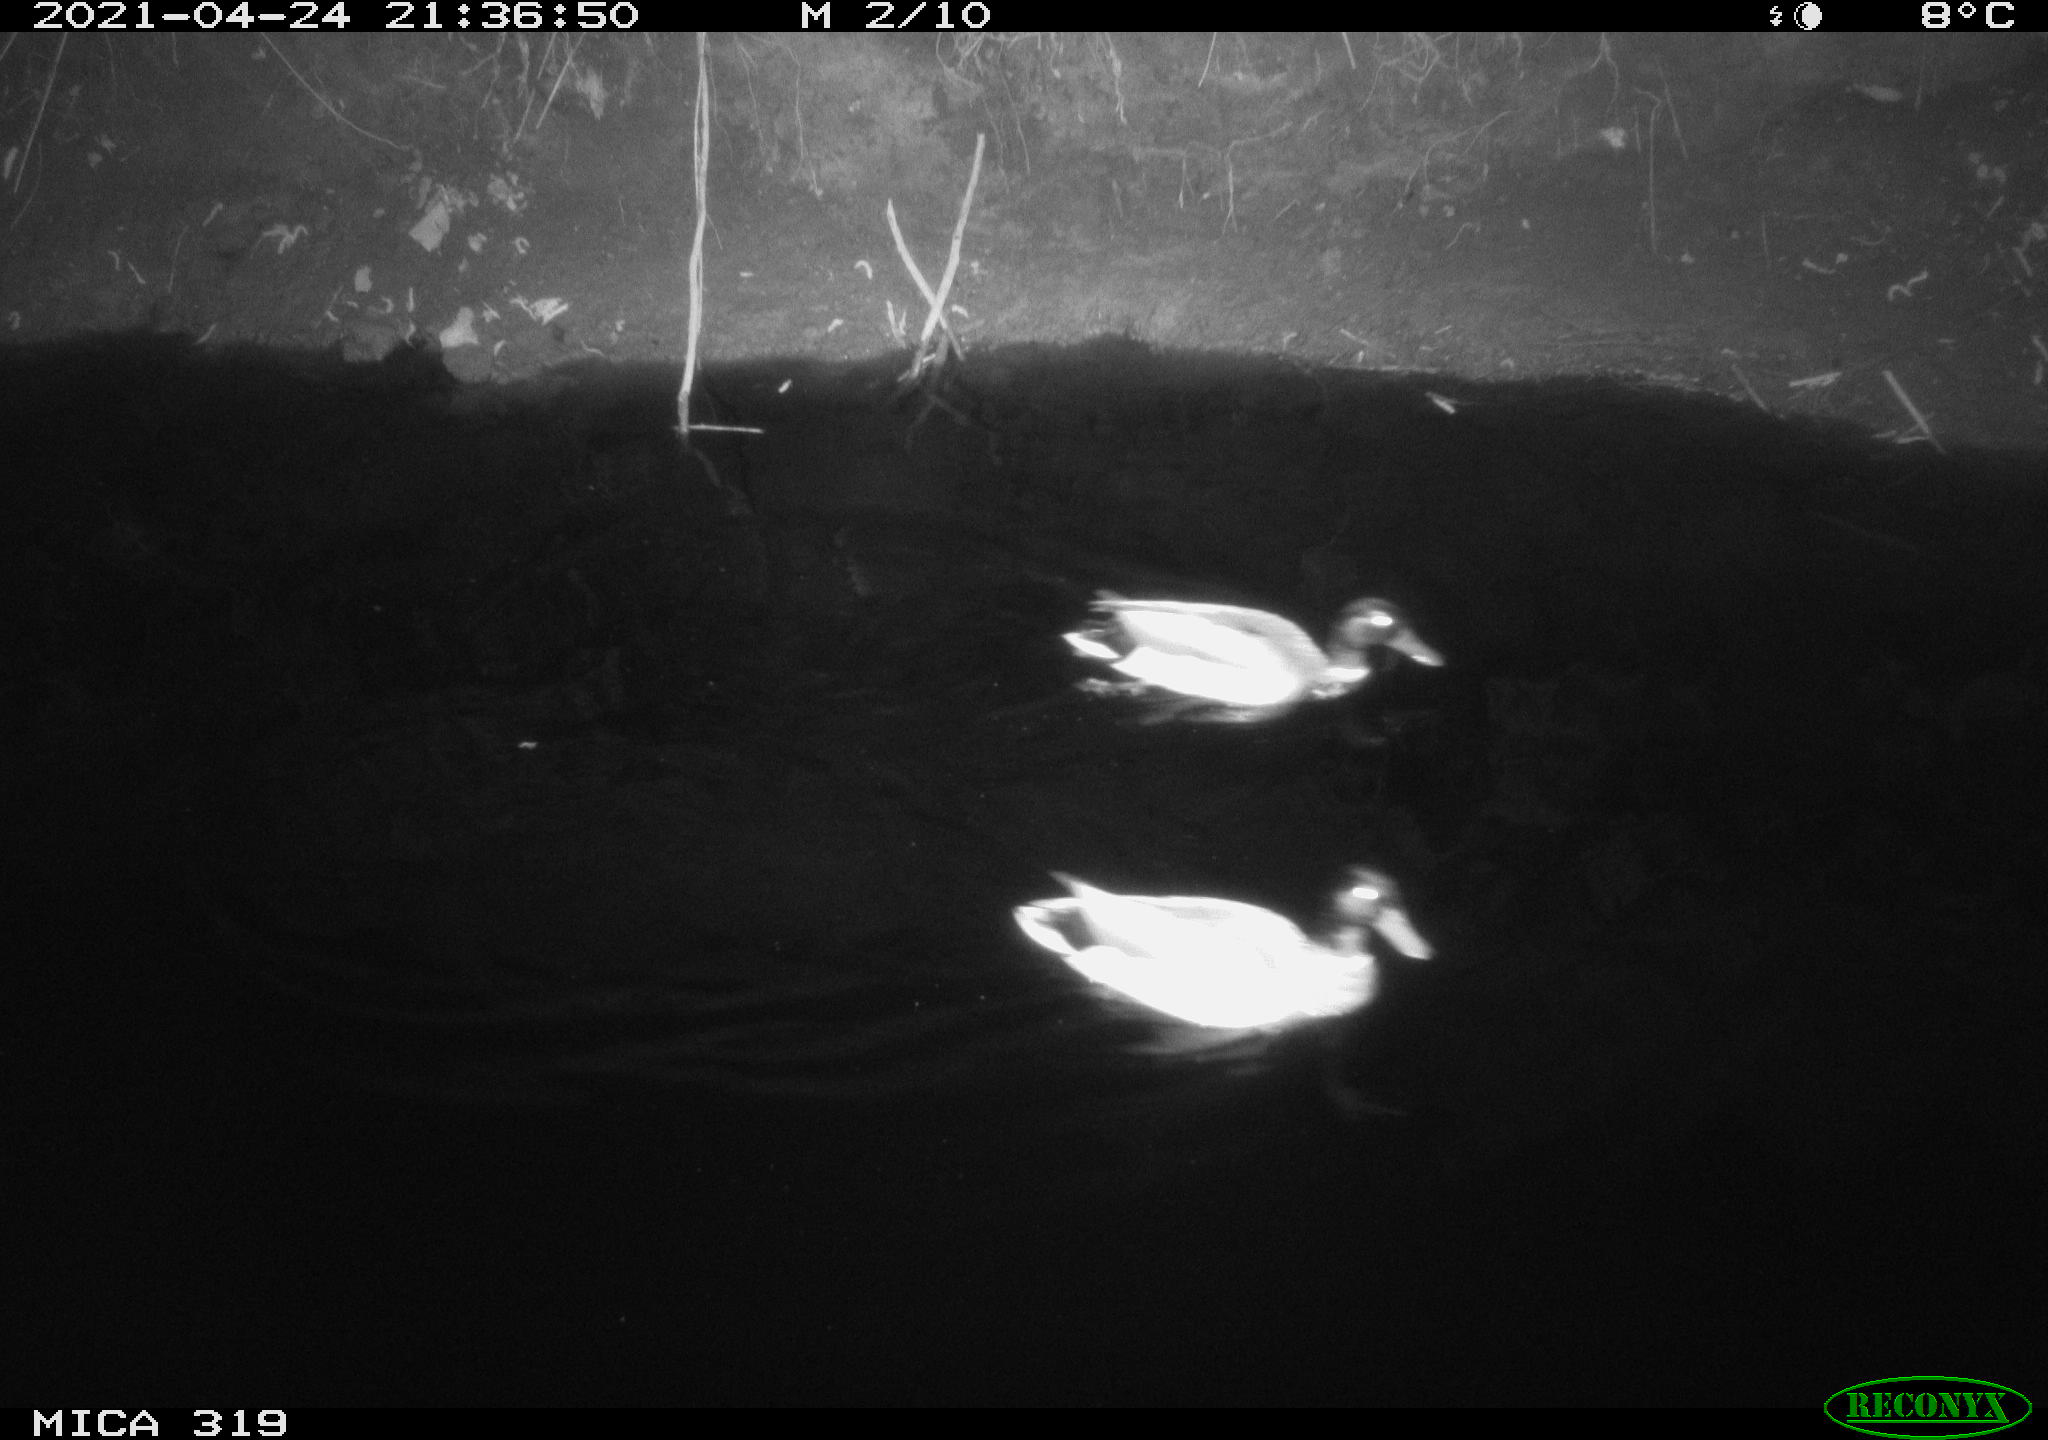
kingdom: Animalia
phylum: Chordata
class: Aves
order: Anseriformes
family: Anatidae
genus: Anas
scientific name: Anas platyrhynchos
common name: Mallard
